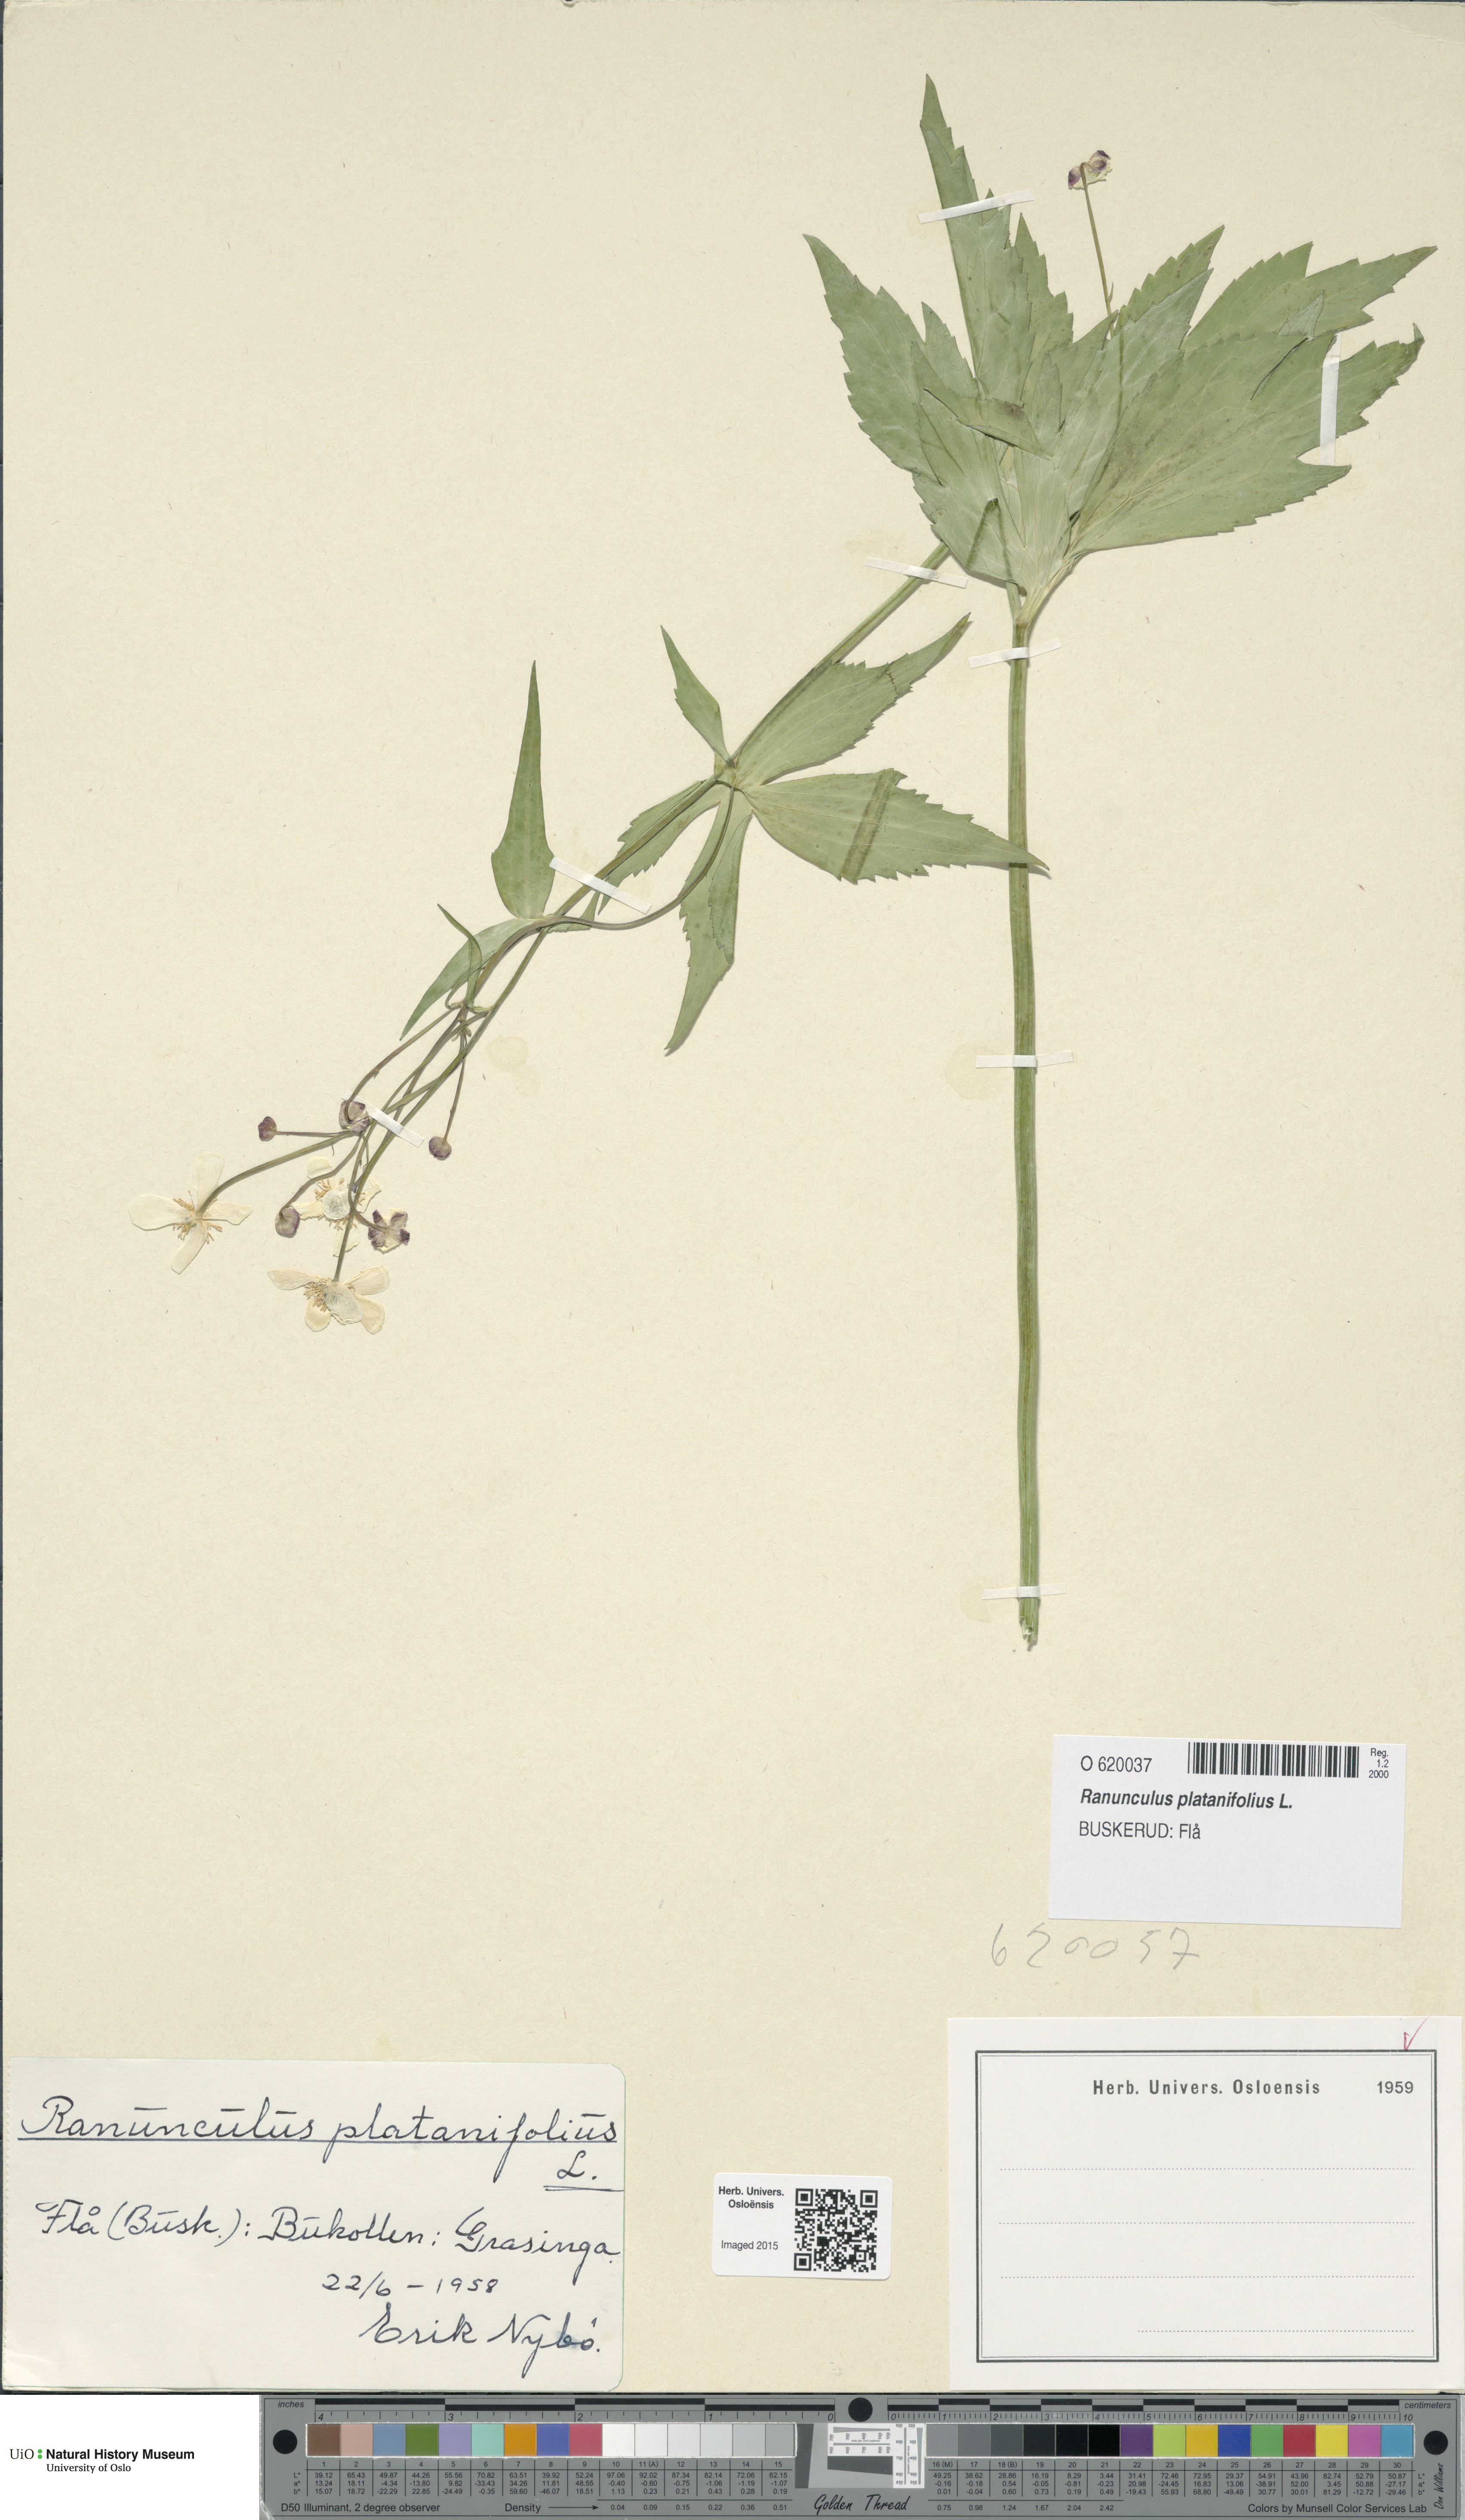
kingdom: Plantae
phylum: Tracheophyta
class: Magnoliopsida
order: Ranunculales
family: Ranunculaceae
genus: Ranunculus
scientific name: Ranunculus platanifolius
